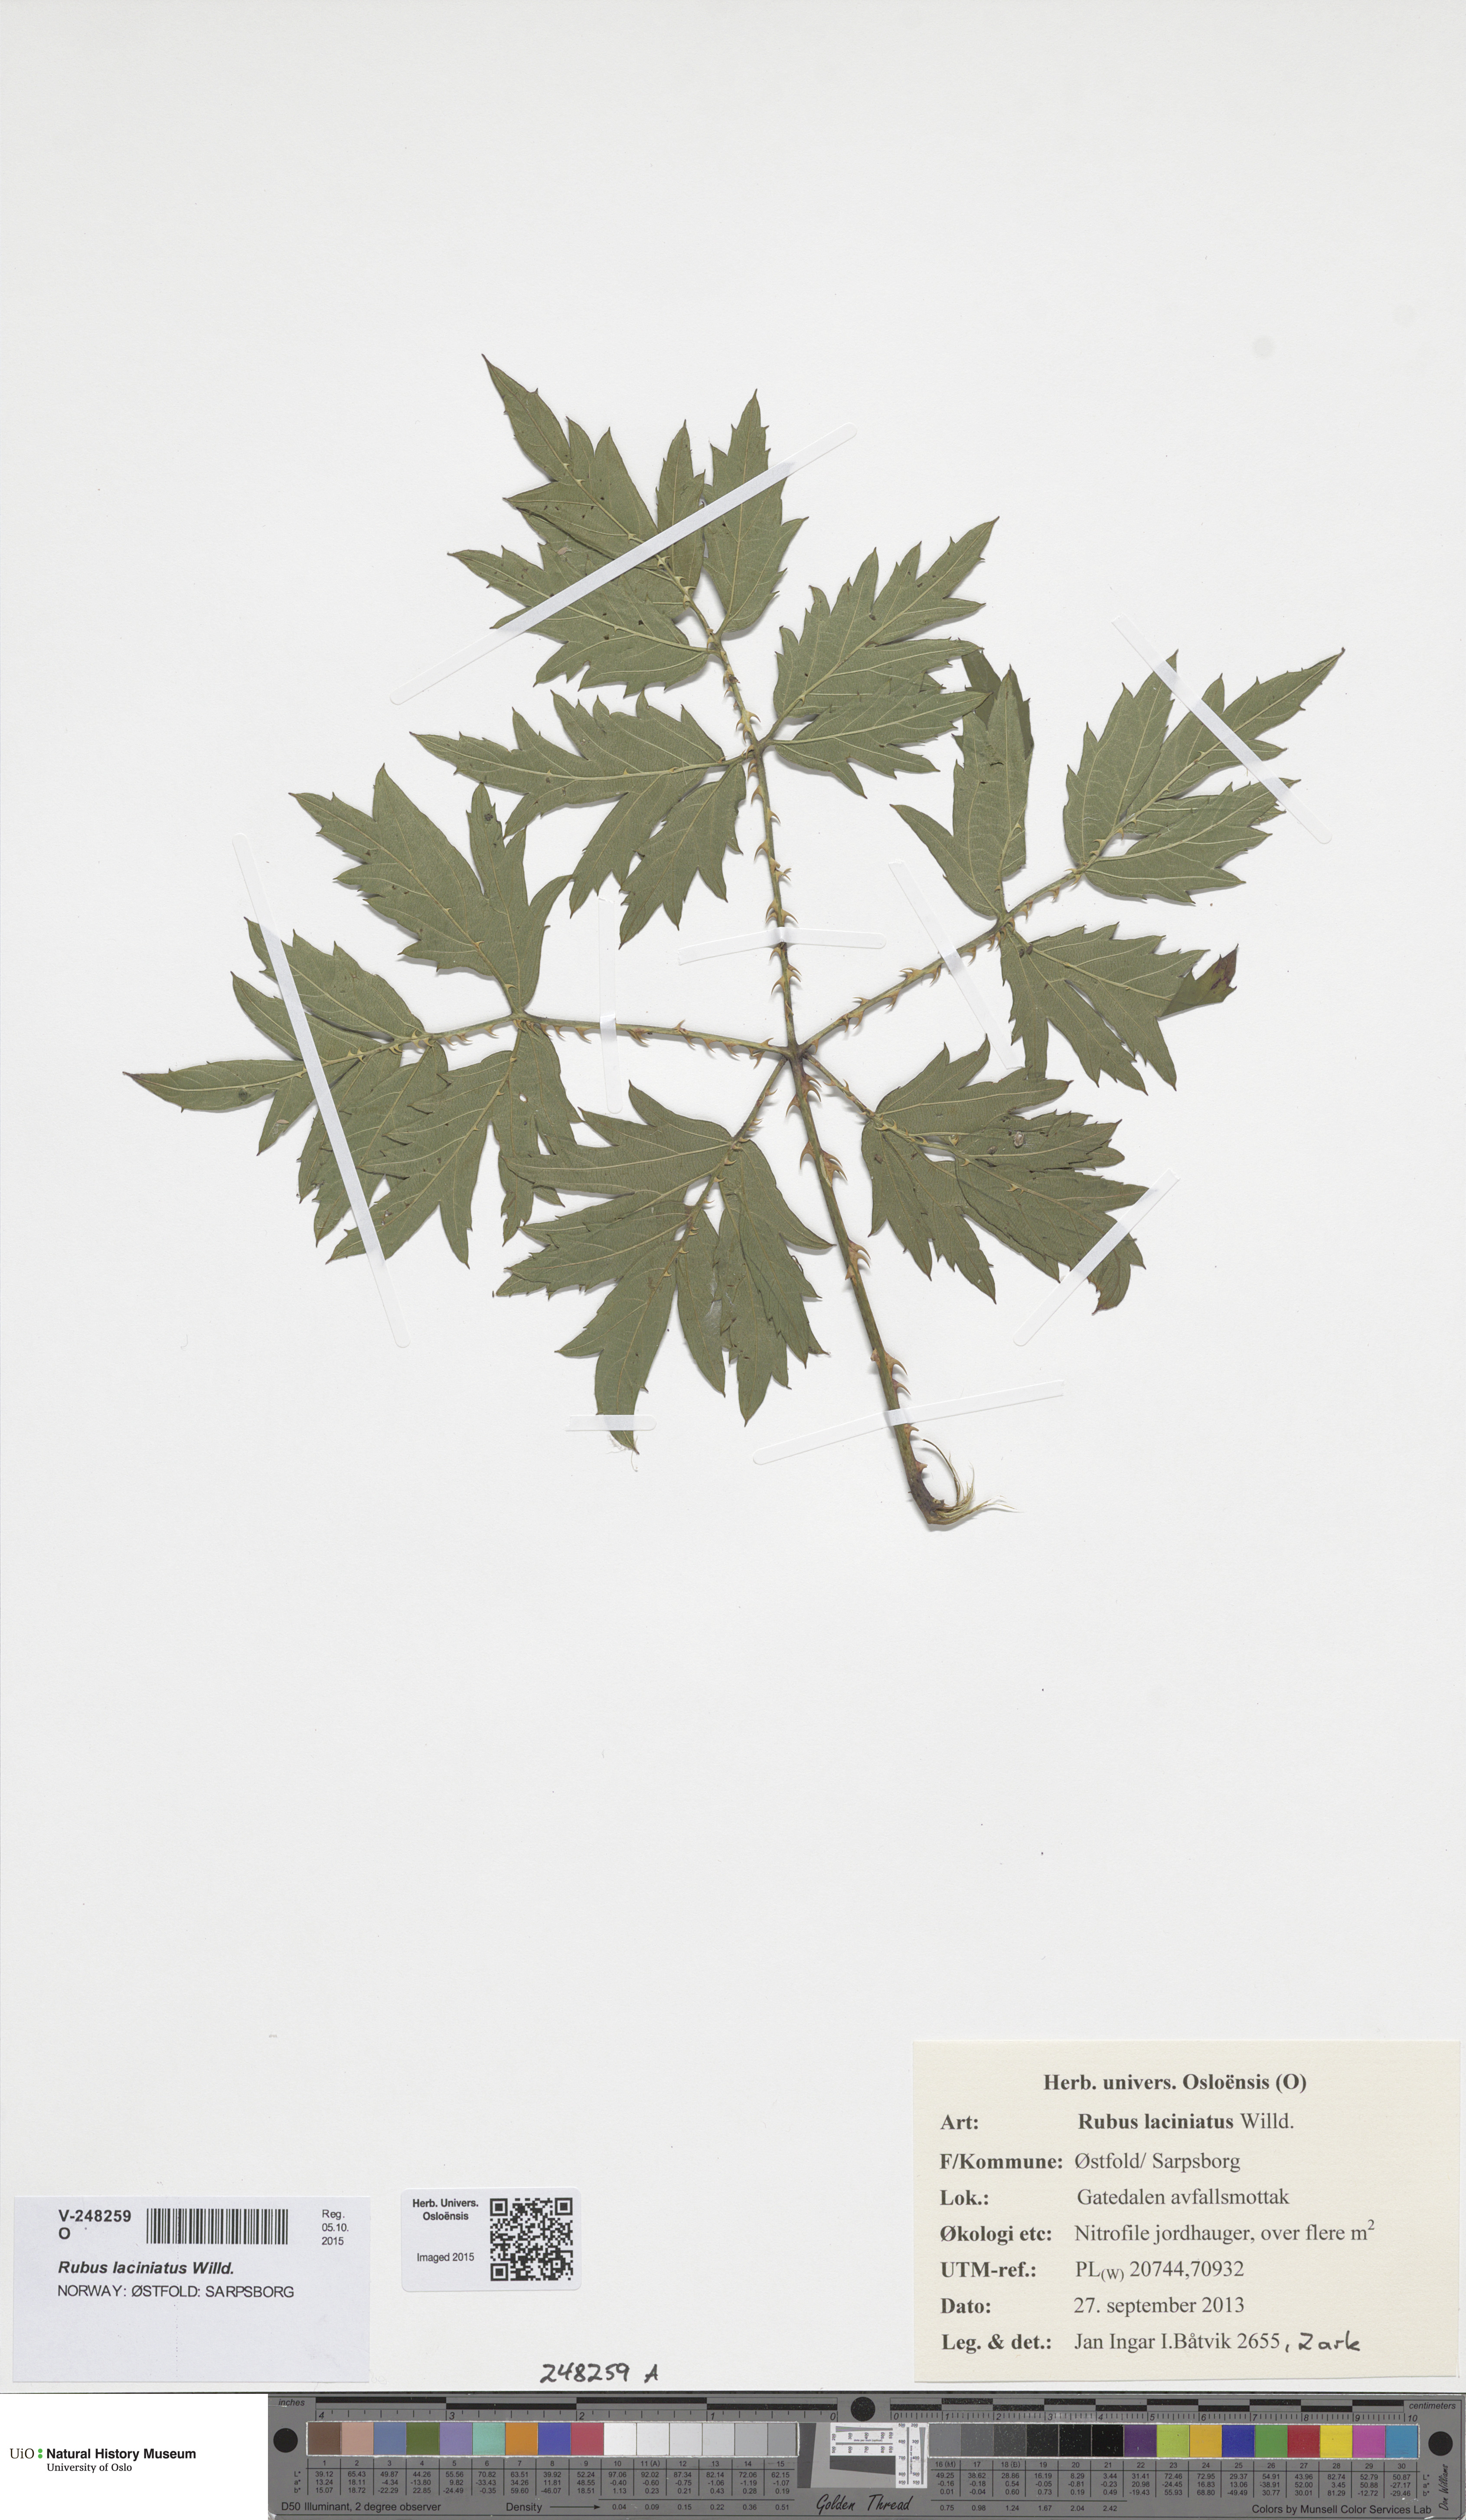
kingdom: Plantae
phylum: Tracheophyta
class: Magnoliopsida
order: Rosales
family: Rosaceae
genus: Rubus
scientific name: Rubus laciniatus
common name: Evergreen blackberry
